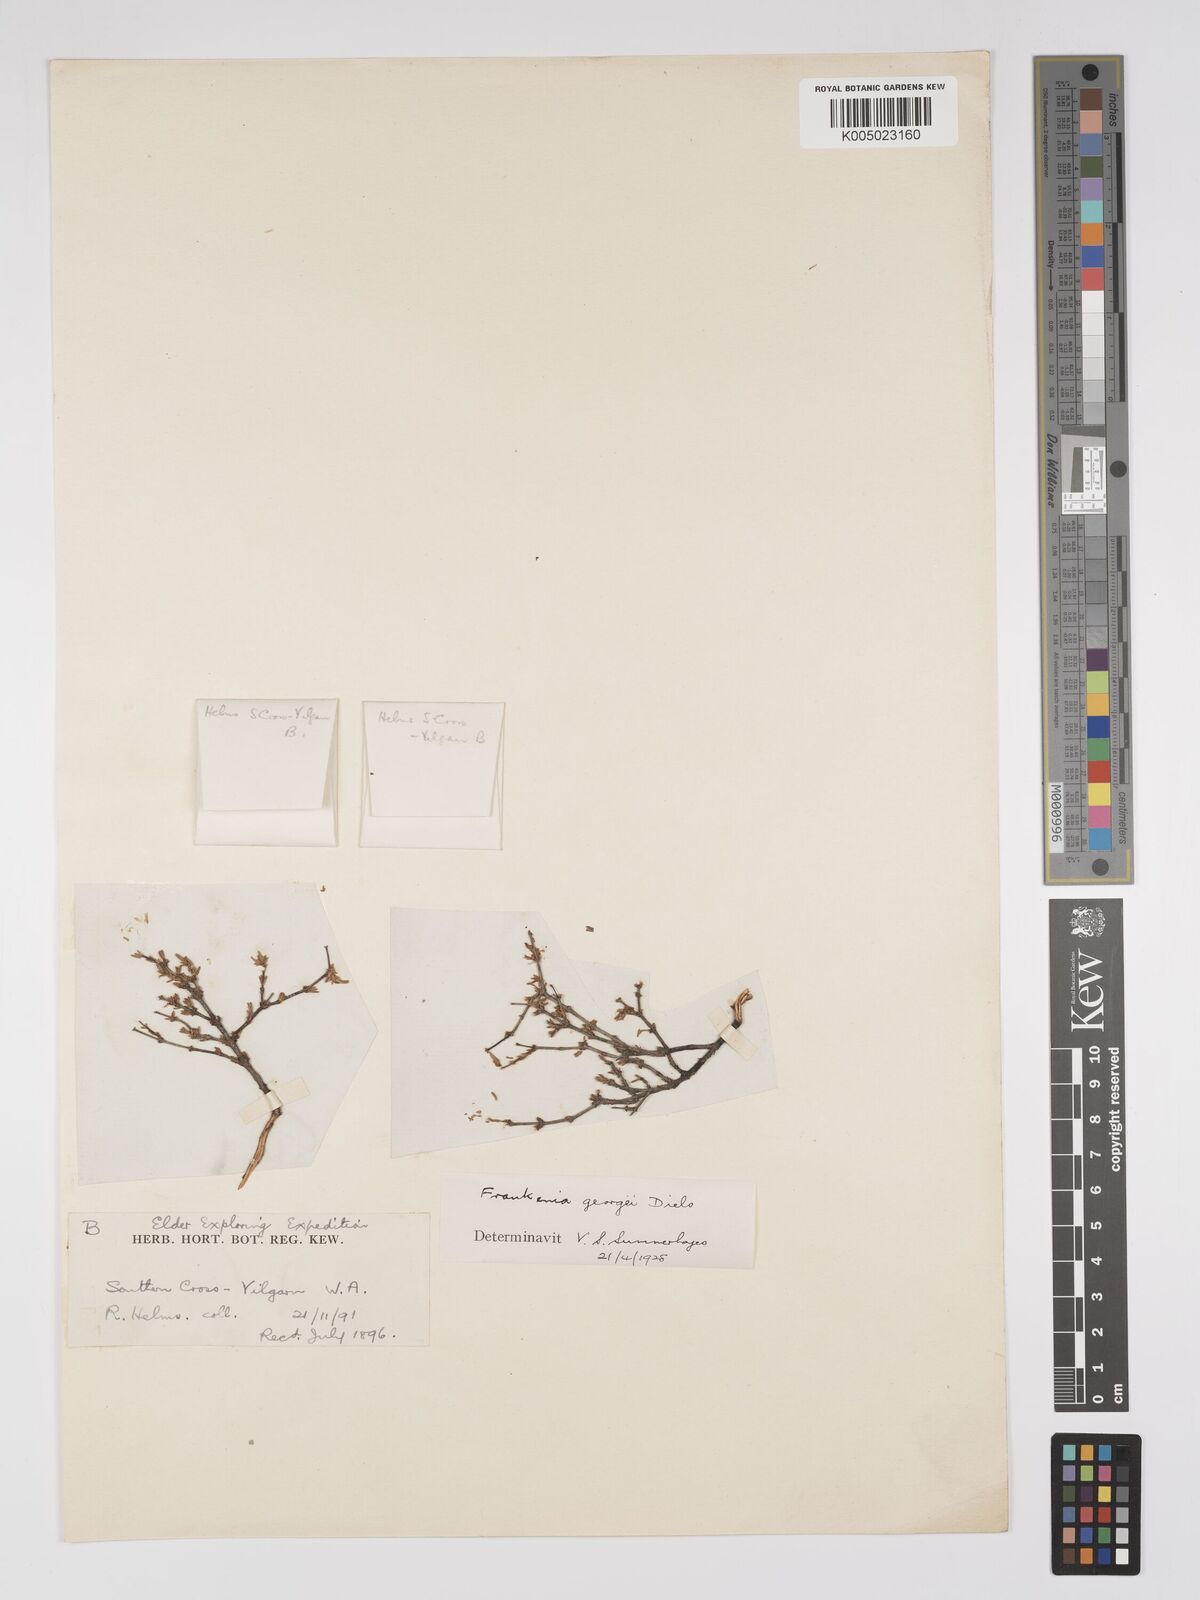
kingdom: Plantae
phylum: Tracheophyta
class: Magnoliopsida
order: Caryophyllales
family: Frankeniaceae
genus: Frankenia
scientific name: Frankenia georgei
